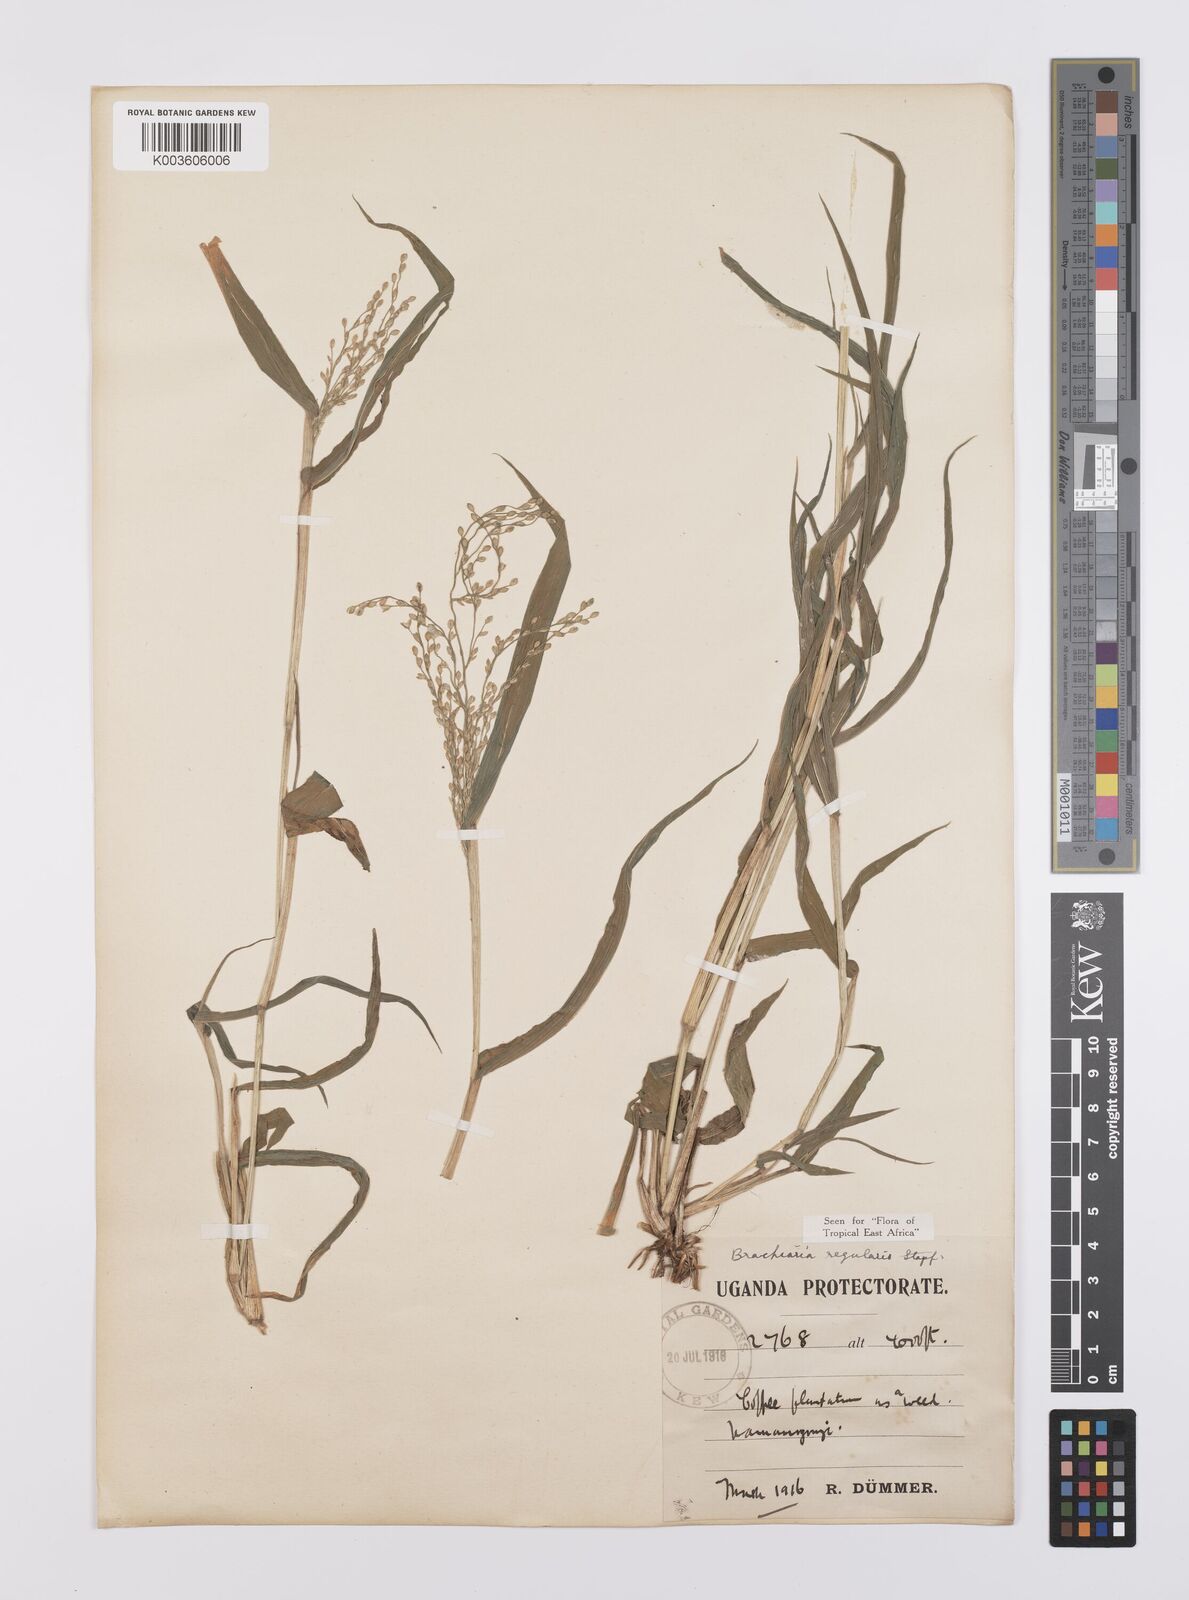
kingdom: Plantae
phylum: Tracheophyta
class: Liliopsida
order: Poales
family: Poaceae
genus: Urochloa
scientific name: Urochloa deflexa
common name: Guinea millet
